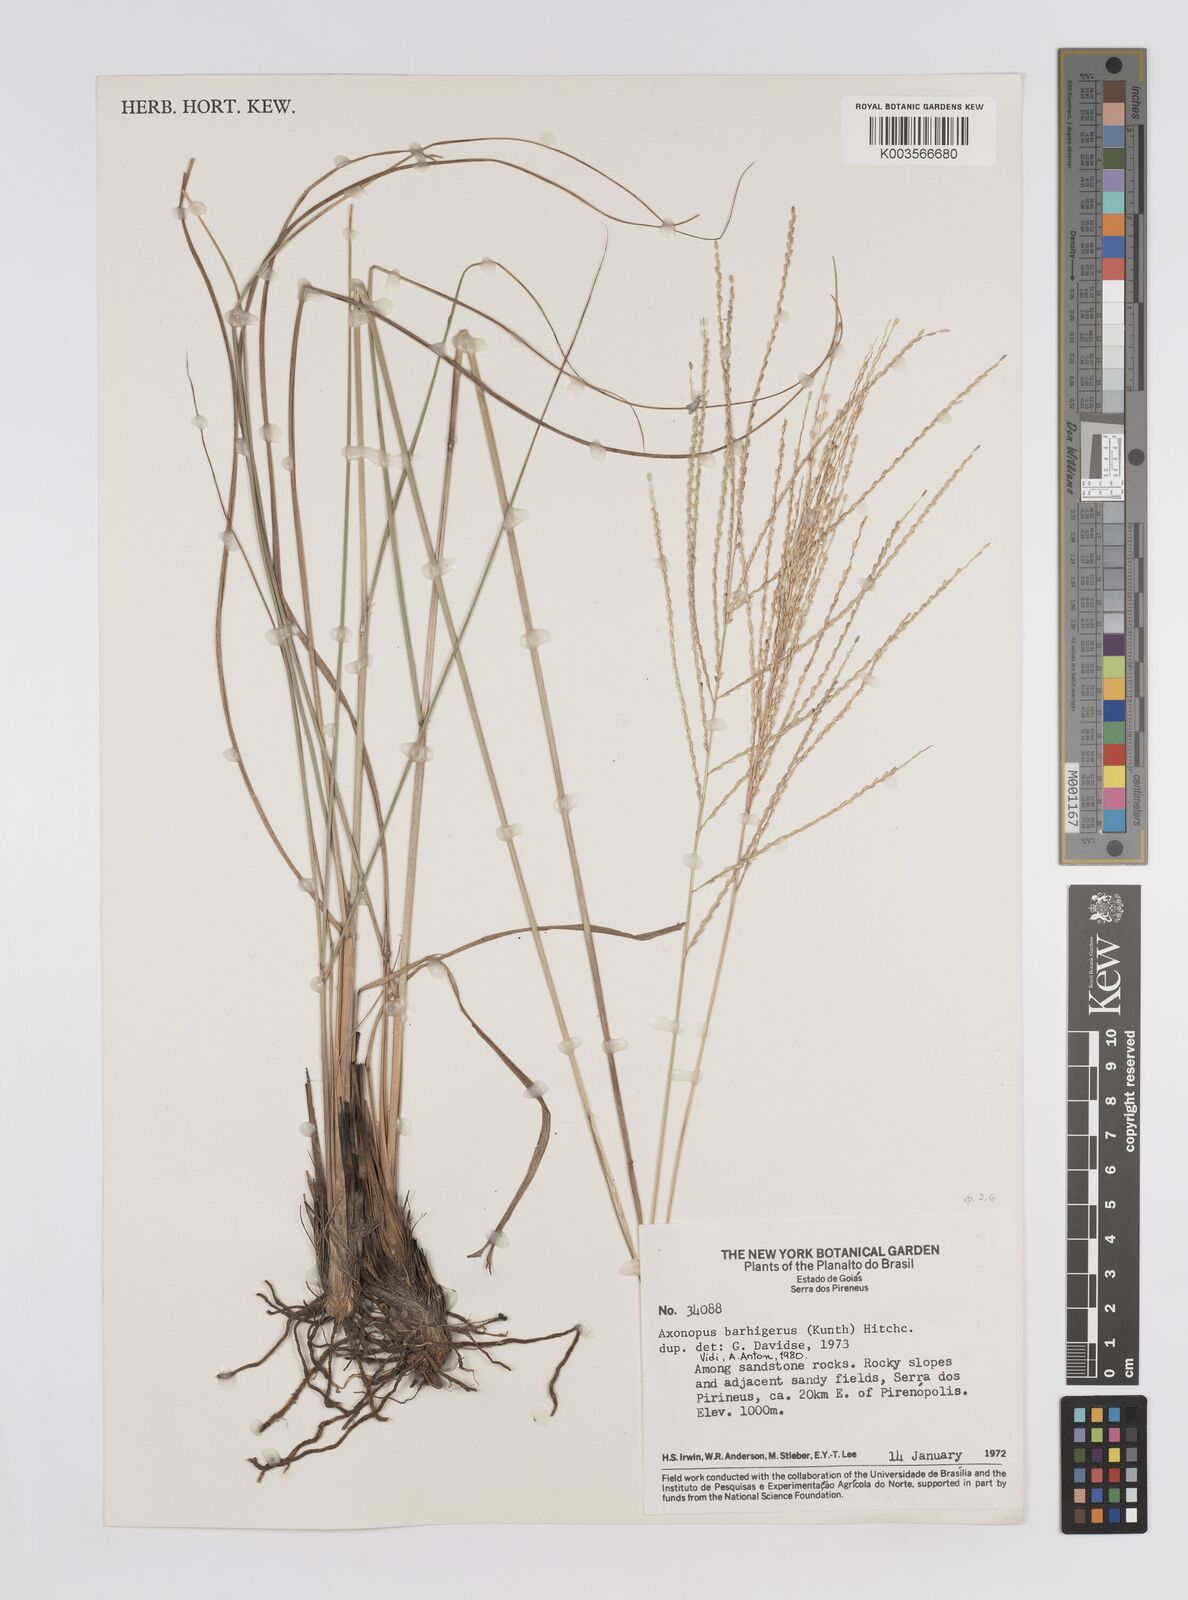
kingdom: Plantae
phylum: Tracheophyta
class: Liliopsida
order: Poales
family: Poaceae
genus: Axonopus
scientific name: Axonopus siccus
